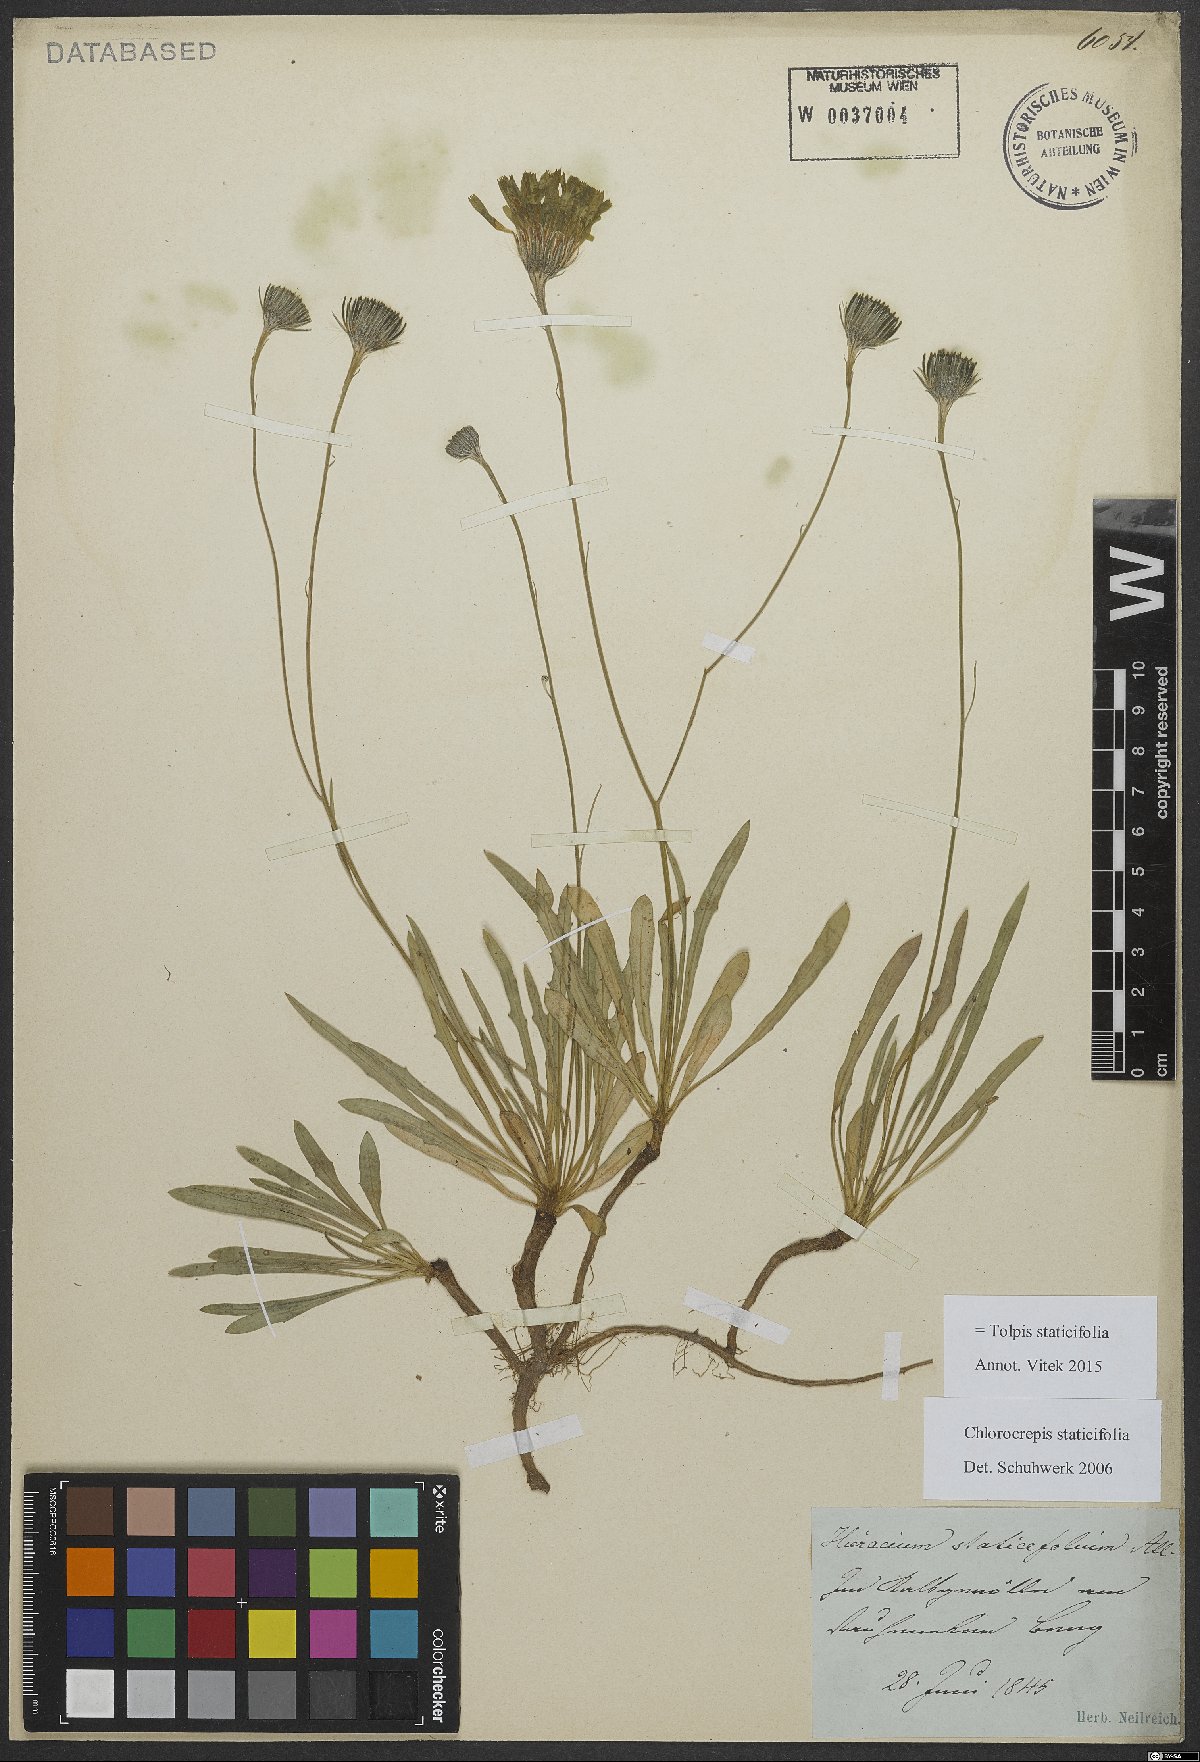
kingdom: Plantae
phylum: Tracheophyta
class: Magnoliopsida
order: Asterales
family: Asteraceae
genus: Tolpis
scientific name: Tolpis staticifolia
